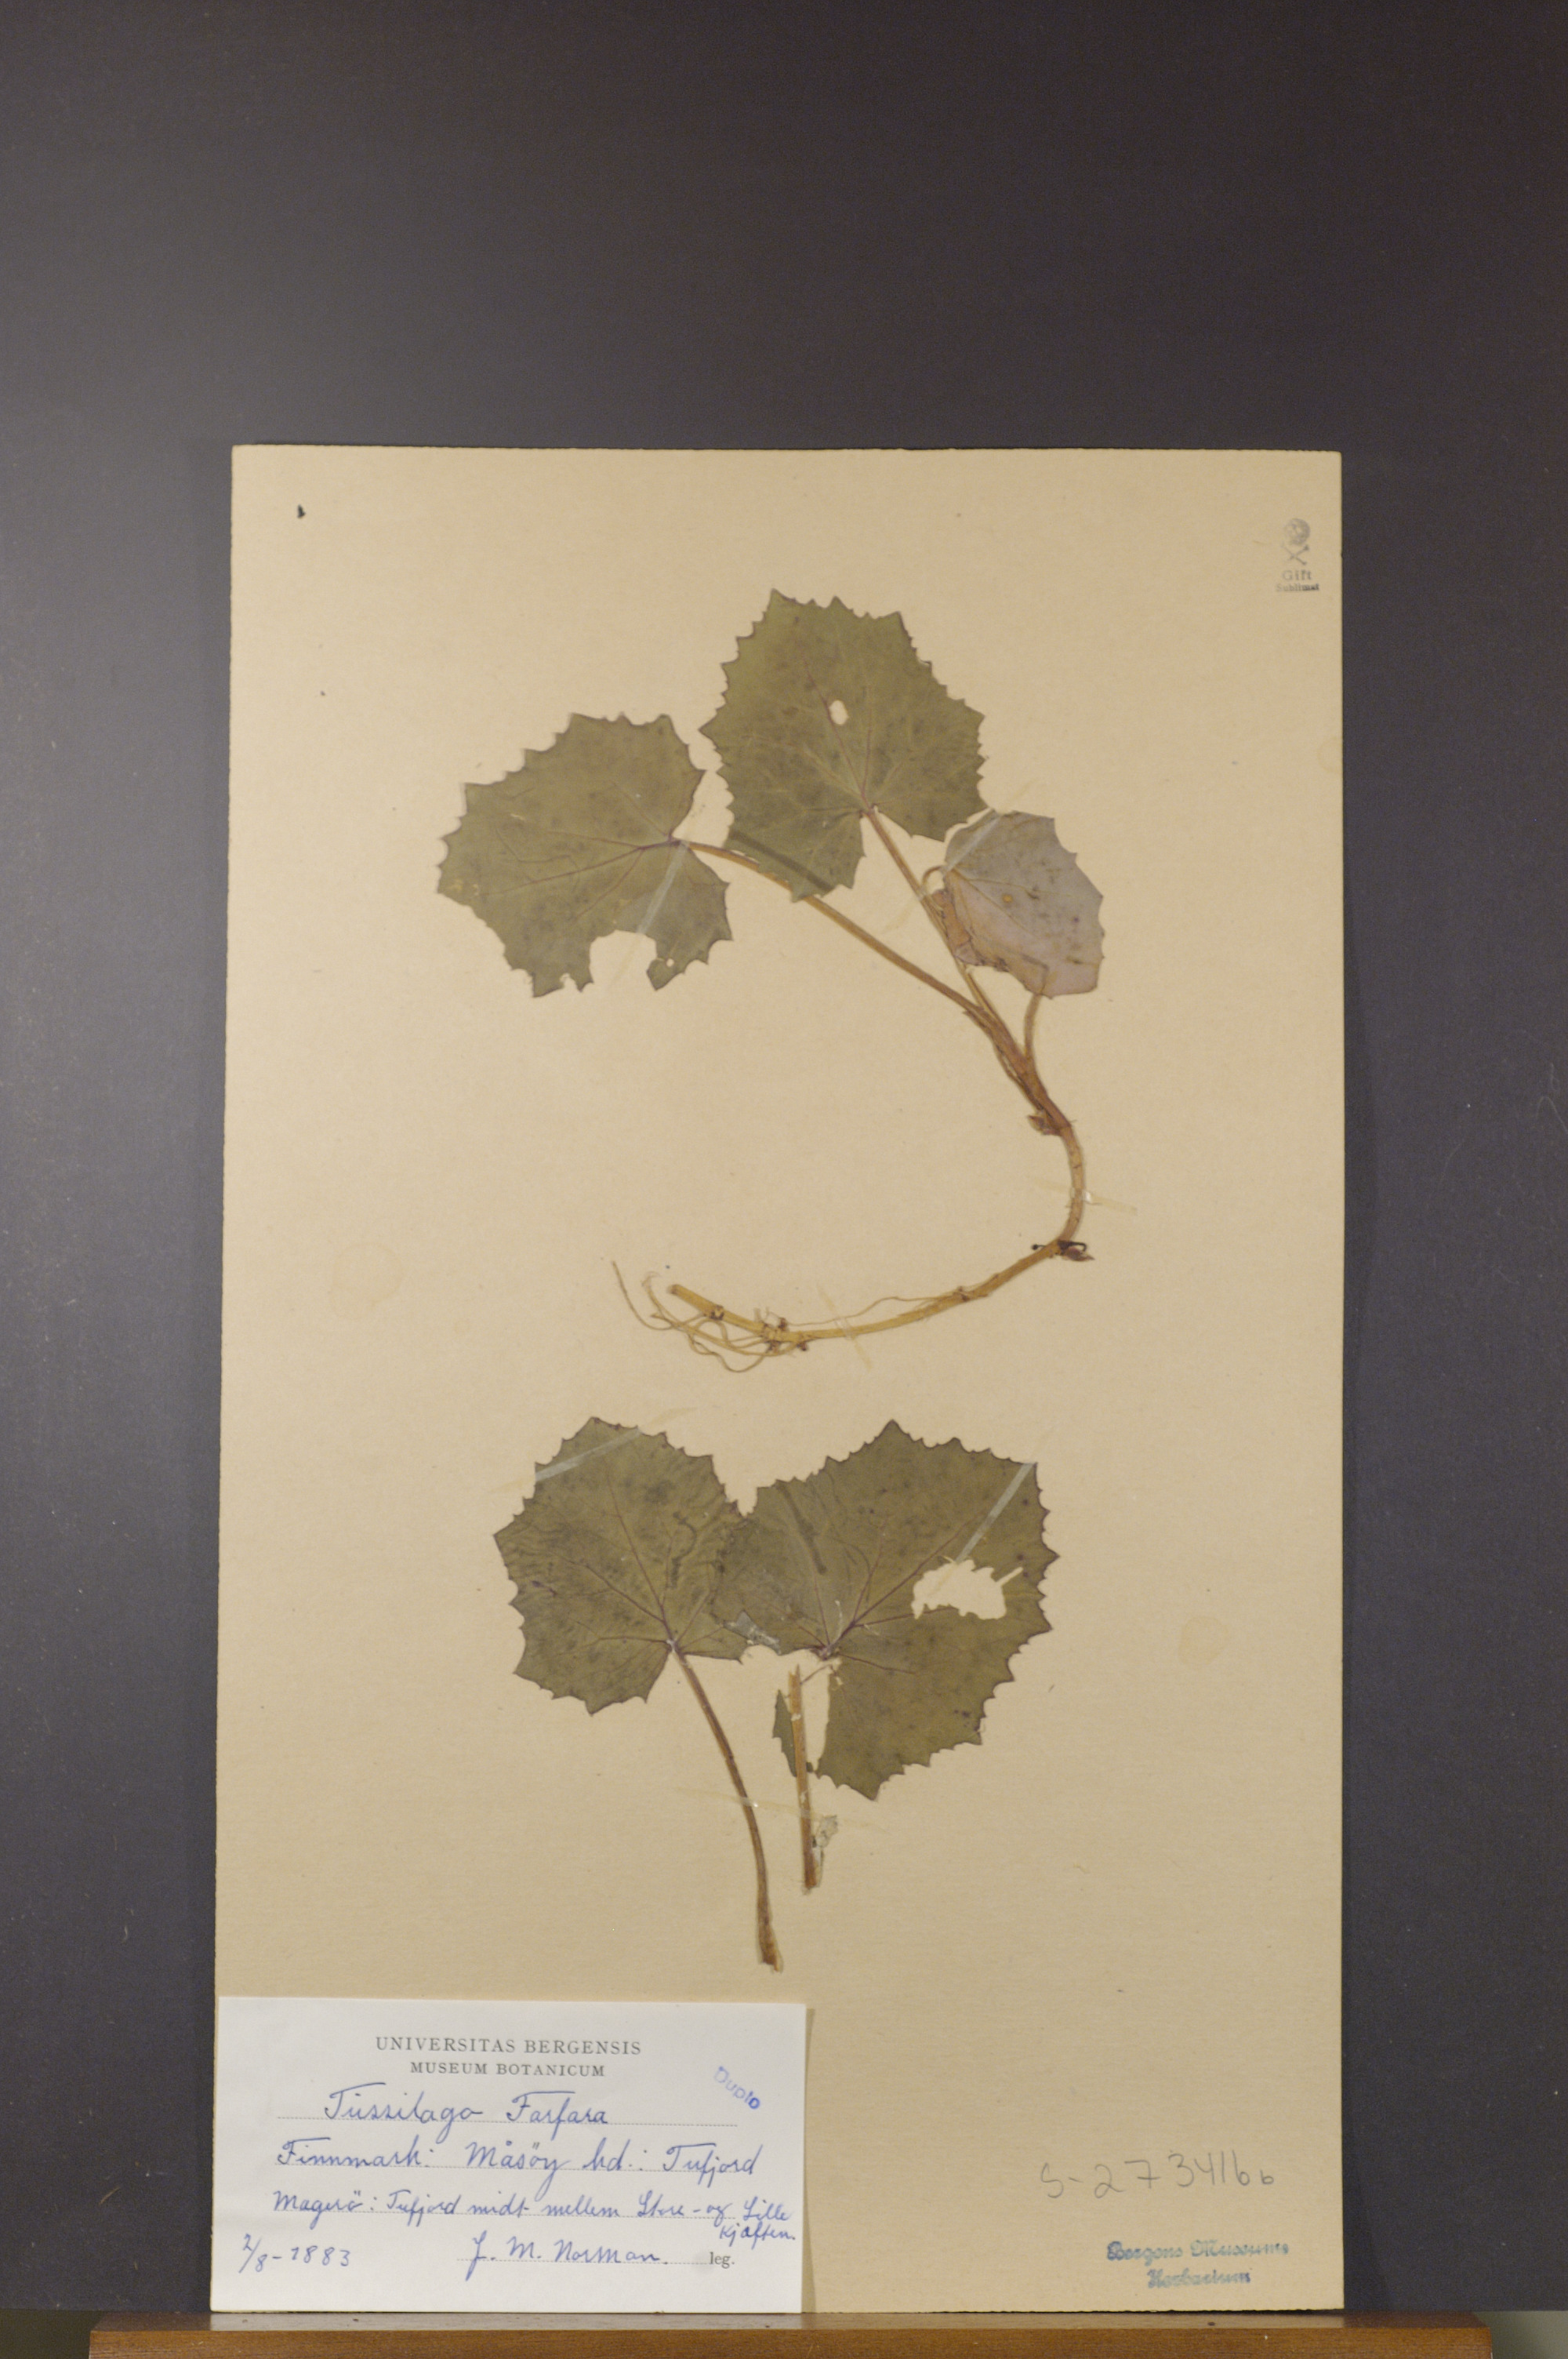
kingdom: Plantae
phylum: Tracheophyta
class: Magnoliopsida
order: Asterales
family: Asteraceae
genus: Tussilago
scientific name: Tussilago farfara
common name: Coltsfoot
